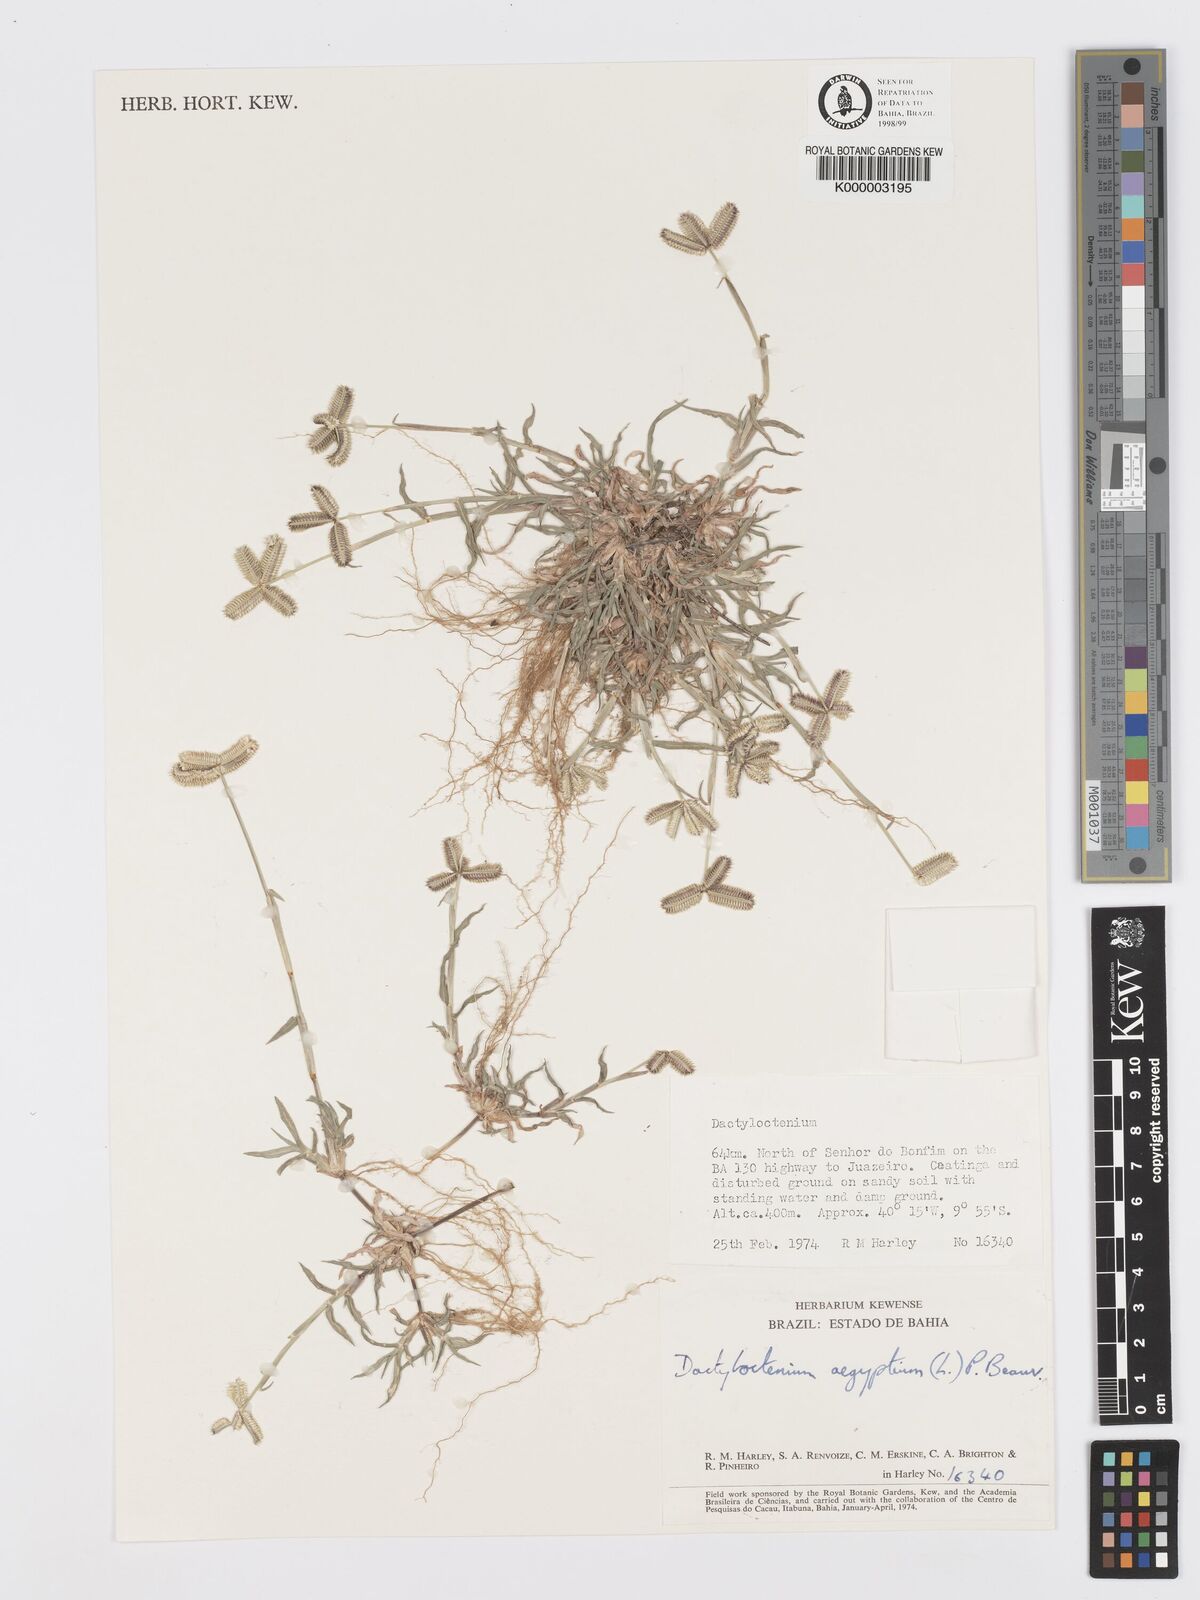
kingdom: Plantae
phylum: Tracheophyta
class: Liliopsida
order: Poales
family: Poaceae
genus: Dactyloctenium
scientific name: Dactyloctenium aegyptium
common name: Egyptian grass
